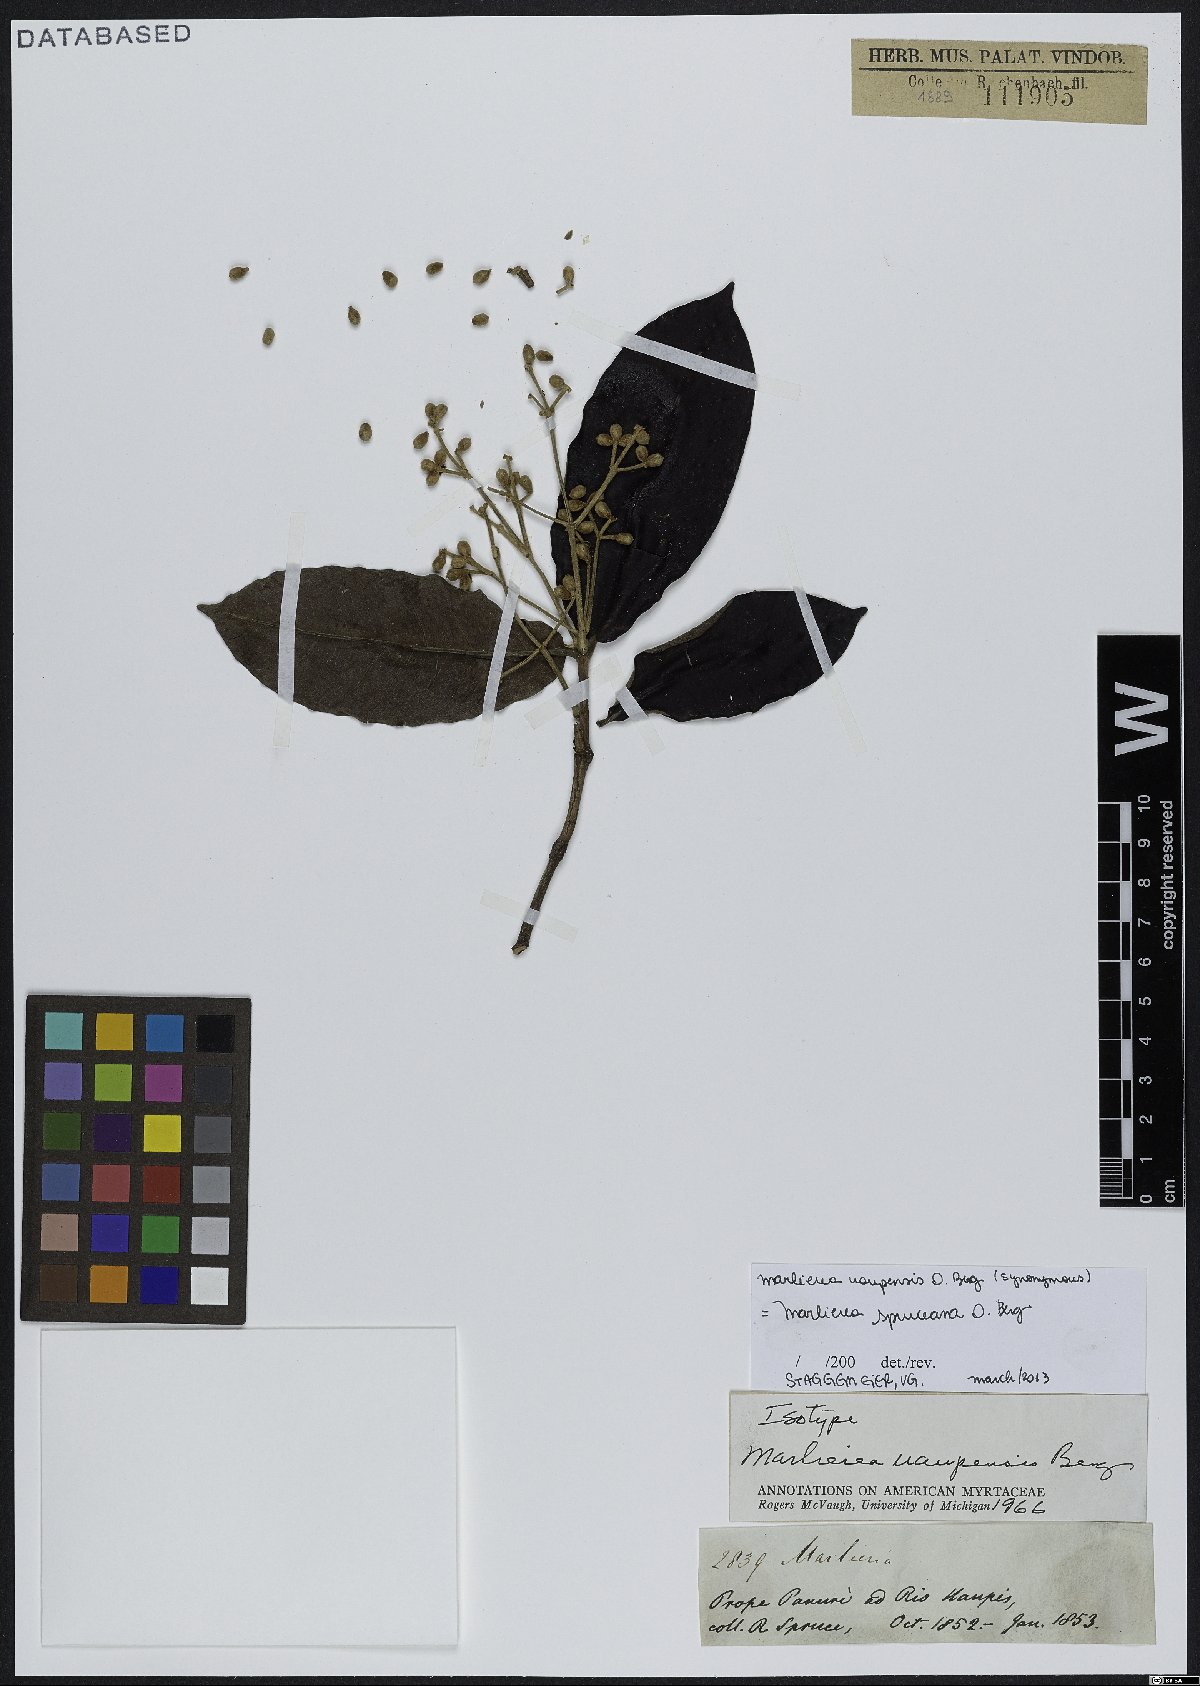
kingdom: Plantae
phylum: Tracheophyta
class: Magnoliopsida
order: Myrtales
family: Myrtaceae
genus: Myrcia
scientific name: Myrcia argentigemma
